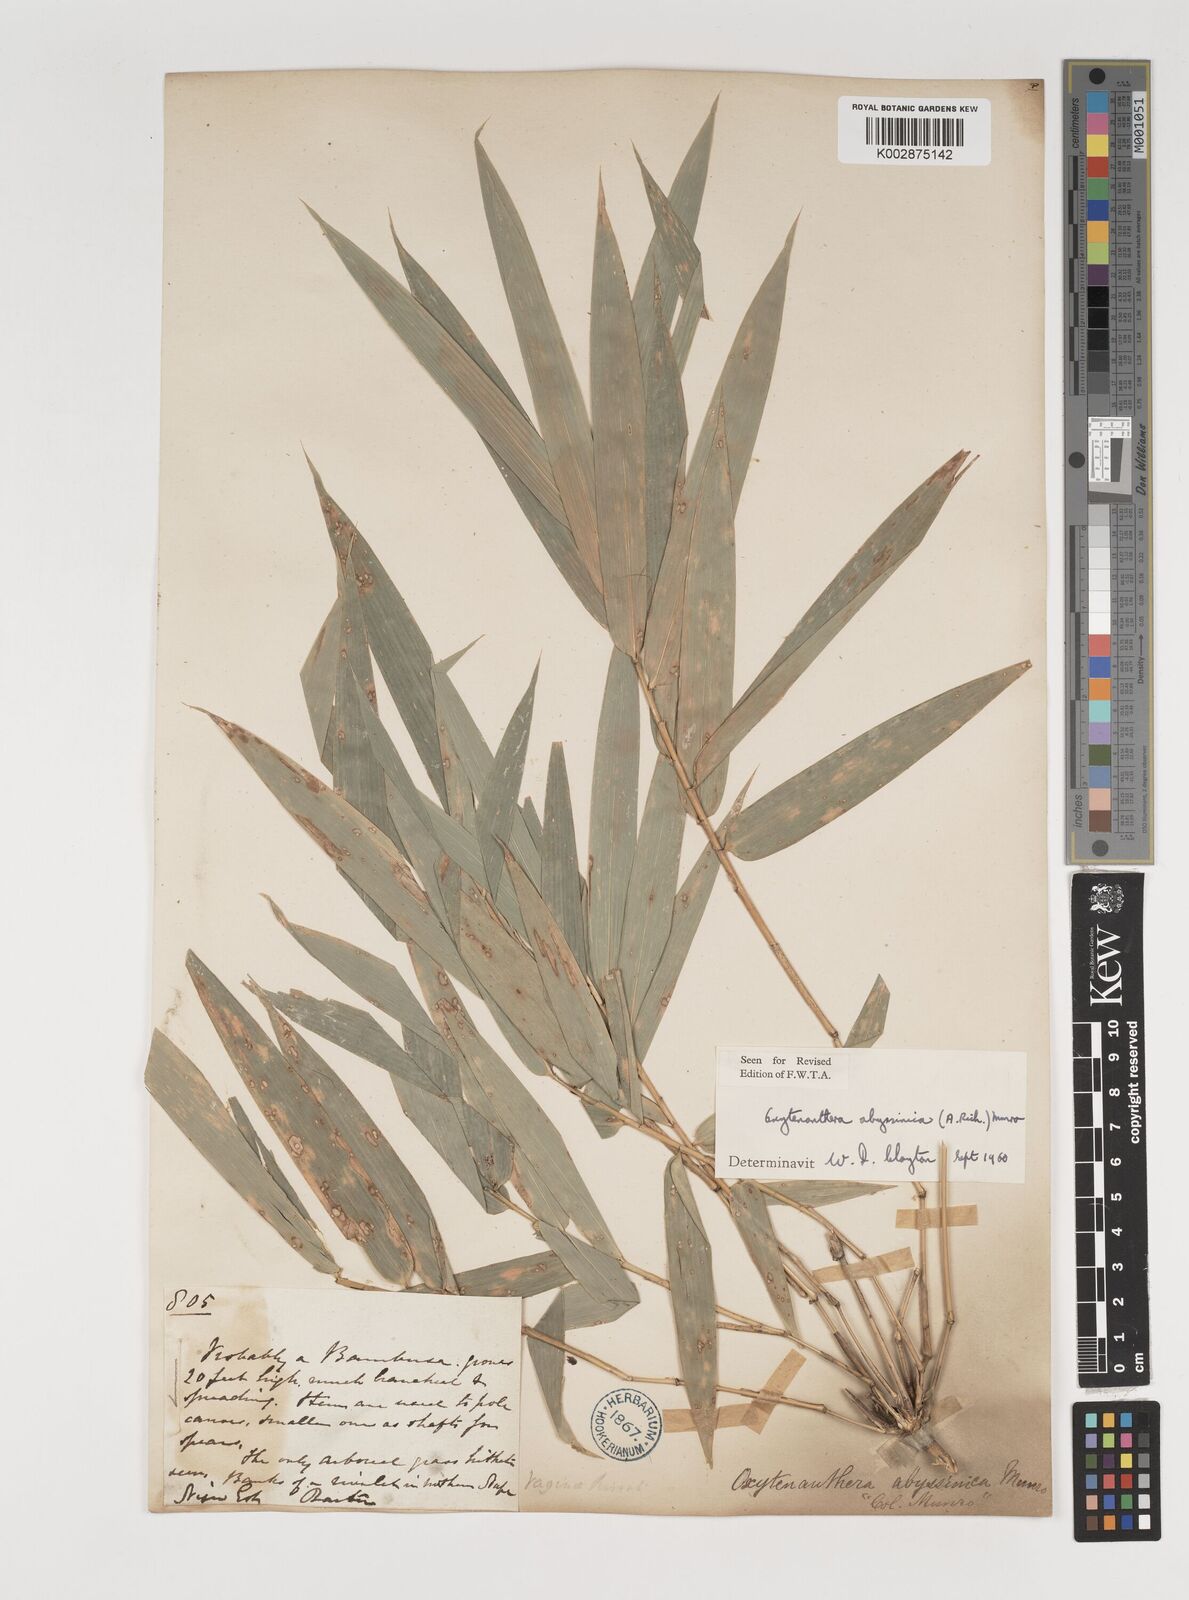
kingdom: Plantae
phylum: Tracheophyta
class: Liliopsida
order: Poales
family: Poaceae
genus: Oxytenanthera
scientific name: Oxytenanthera abyssinica
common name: Wine bamboo
